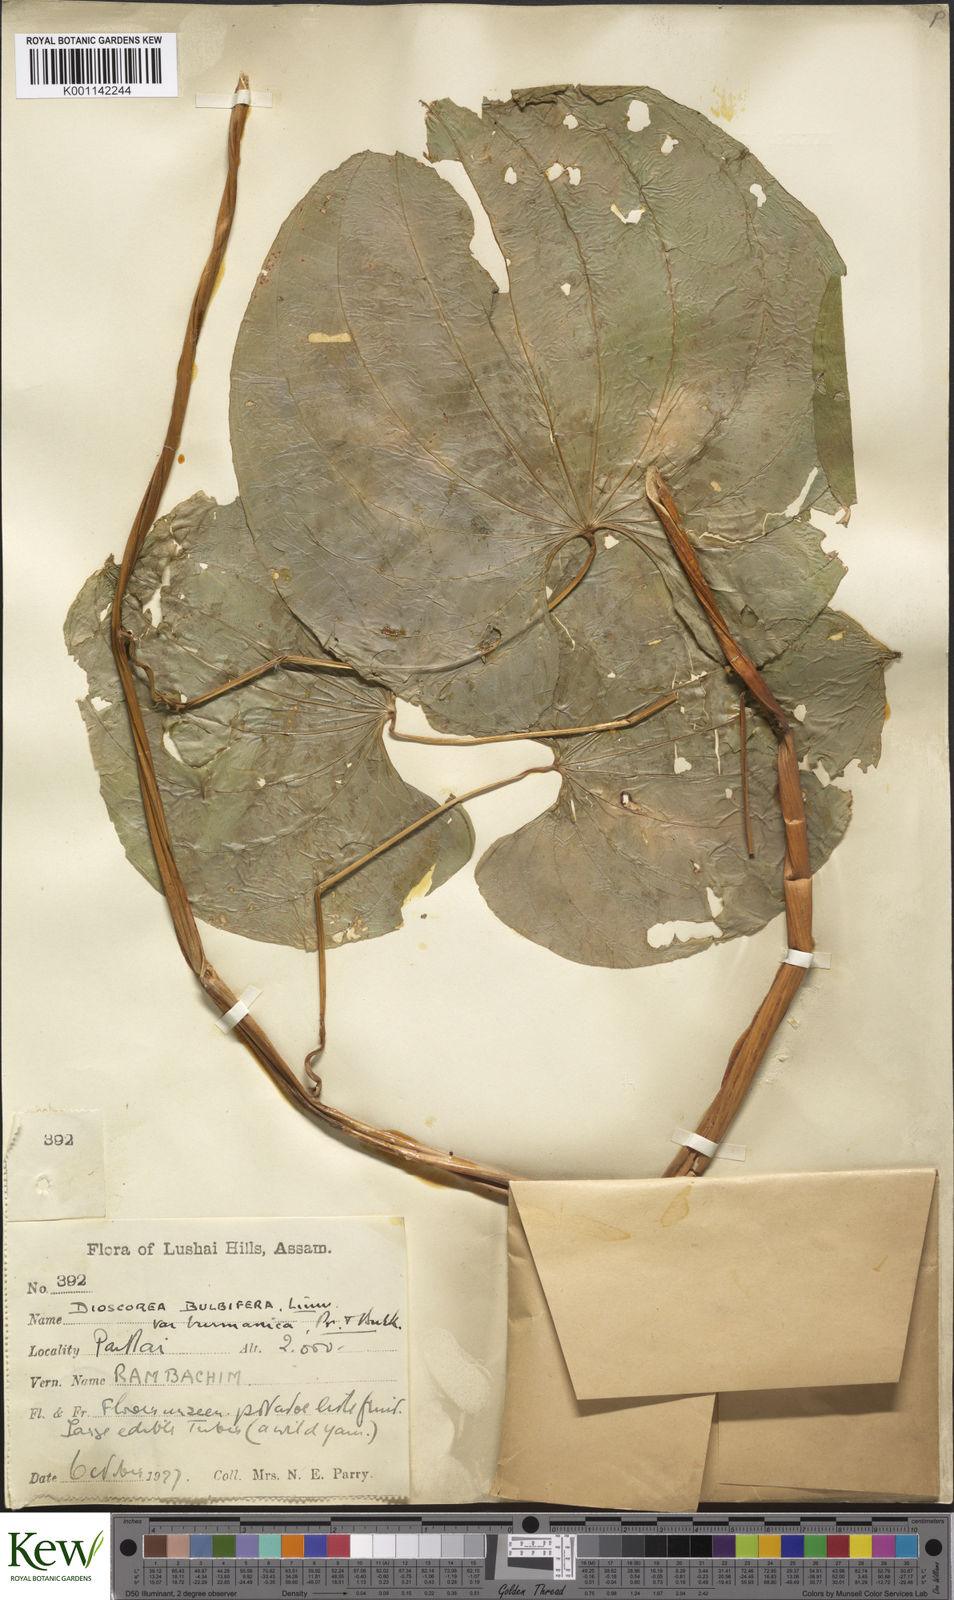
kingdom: Plantae
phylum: Tracheophyta
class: Liliopsida
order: Dioscoreales
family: Dioscoreaceae
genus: Dioscorea
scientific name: Dioscorea bulbifera
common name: Air yam
